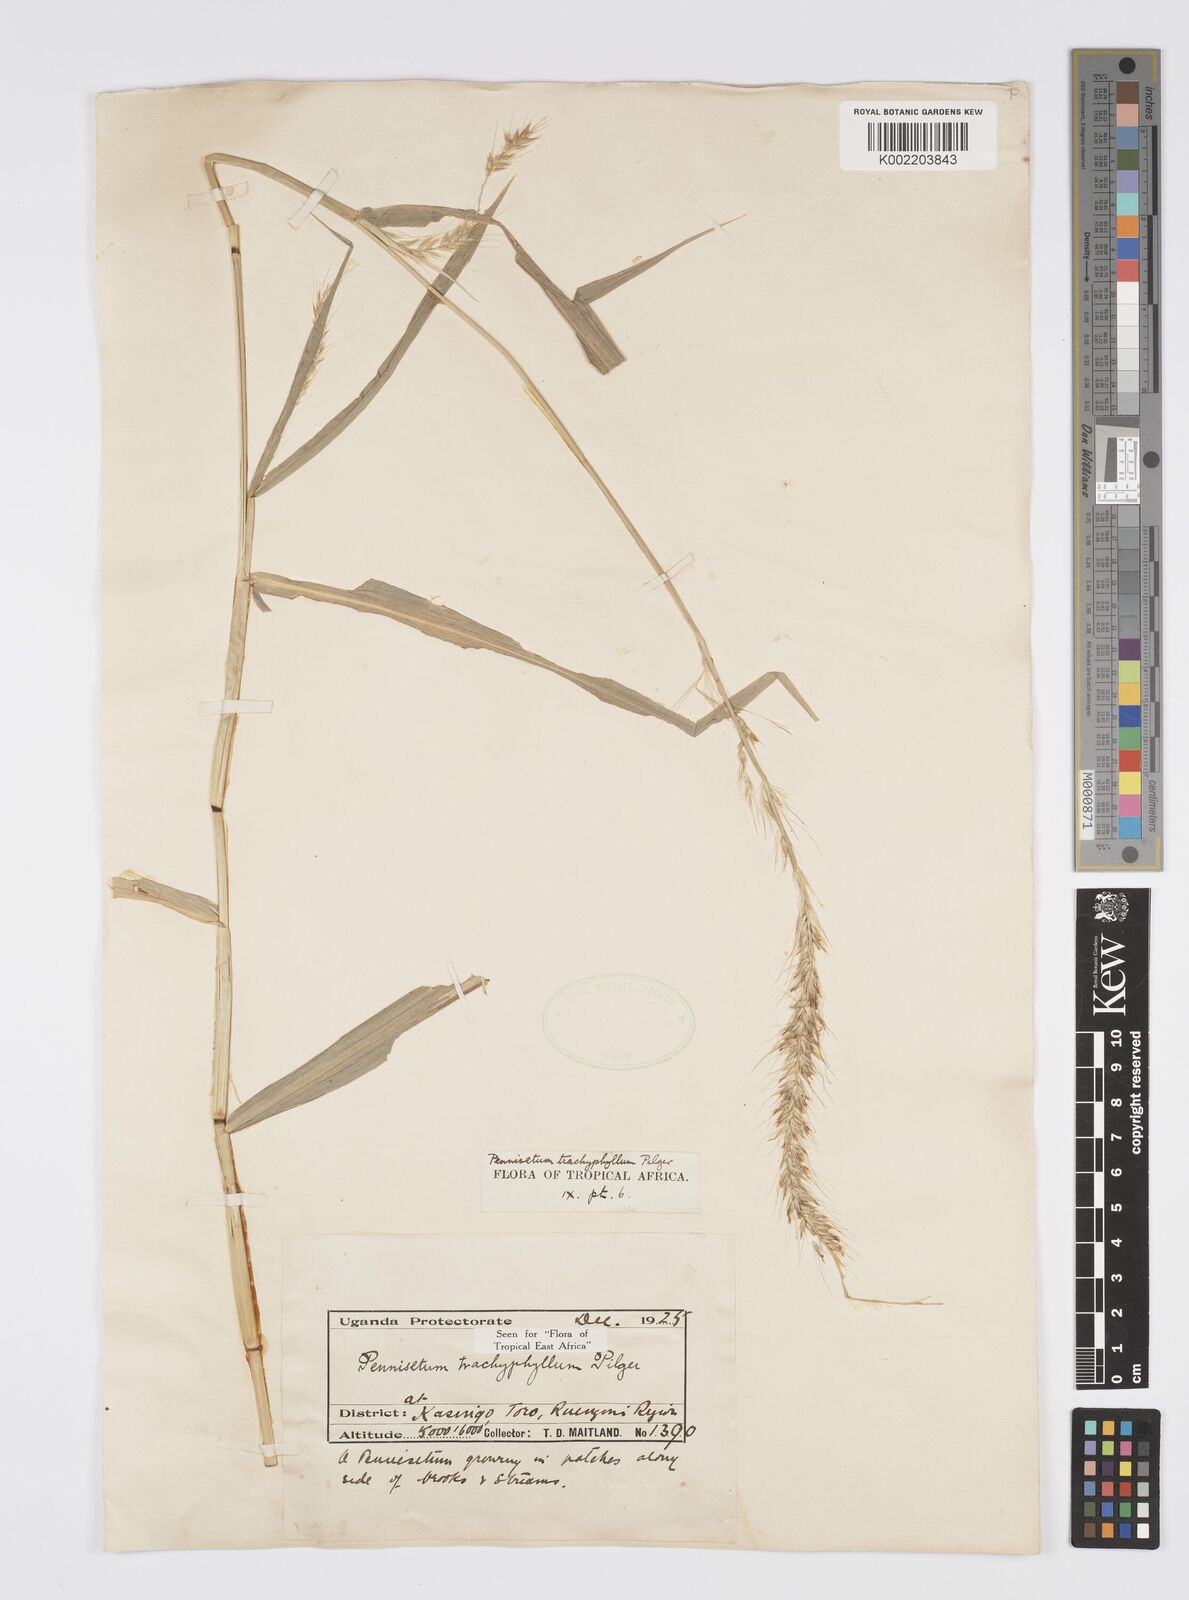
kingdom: Plantae
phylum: Tracheophyta
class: Liliopsida
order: Poales
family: Poaceae
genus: Cenchrus
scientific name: Cenchrus trachyphyllus
